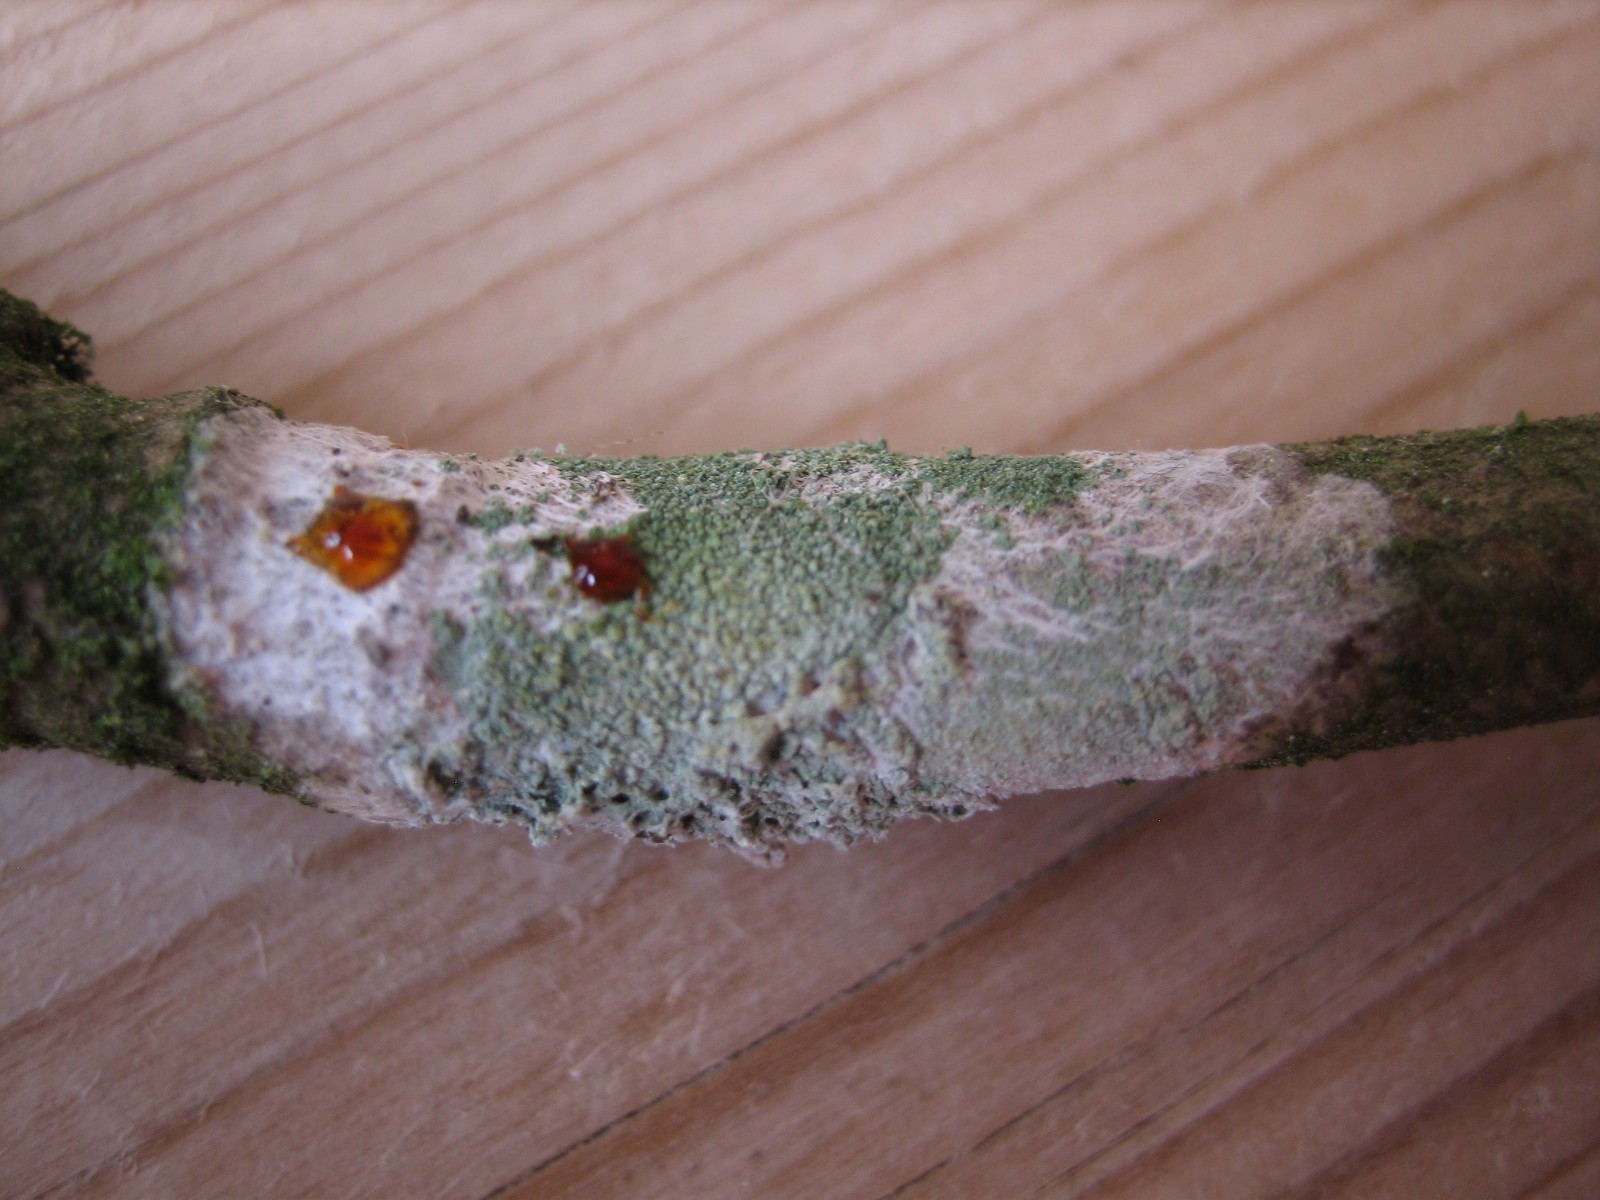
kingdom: Fungi
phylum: Ascomycota
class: Lecanoromycetes
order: Ostropales
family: Phlyctidaceae
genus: Phlyctis
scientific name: Phlyctis argena
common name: almindelig sølvlav
